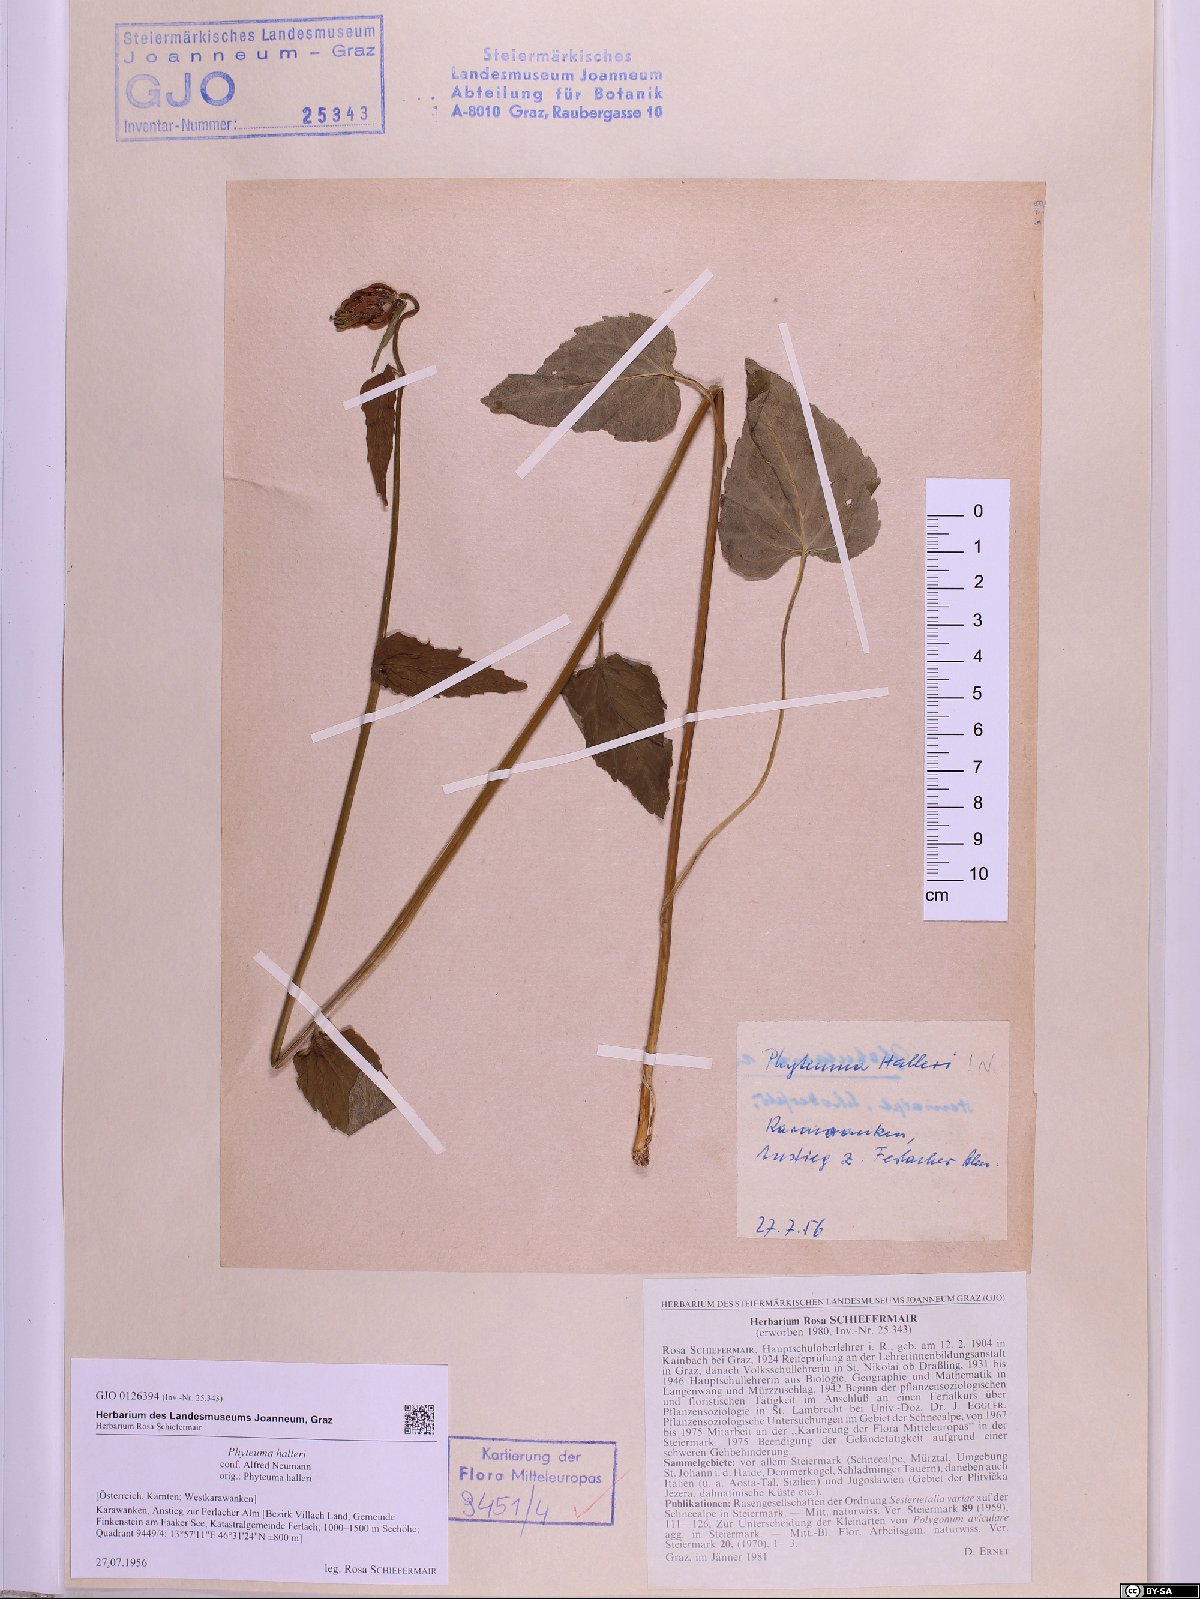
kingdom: Plantae
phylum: Tracheophyta
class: Magnoliopsida
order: Asterales
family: Campanulaceae
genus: Phyteuma
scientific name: Phyteuma ovatum
